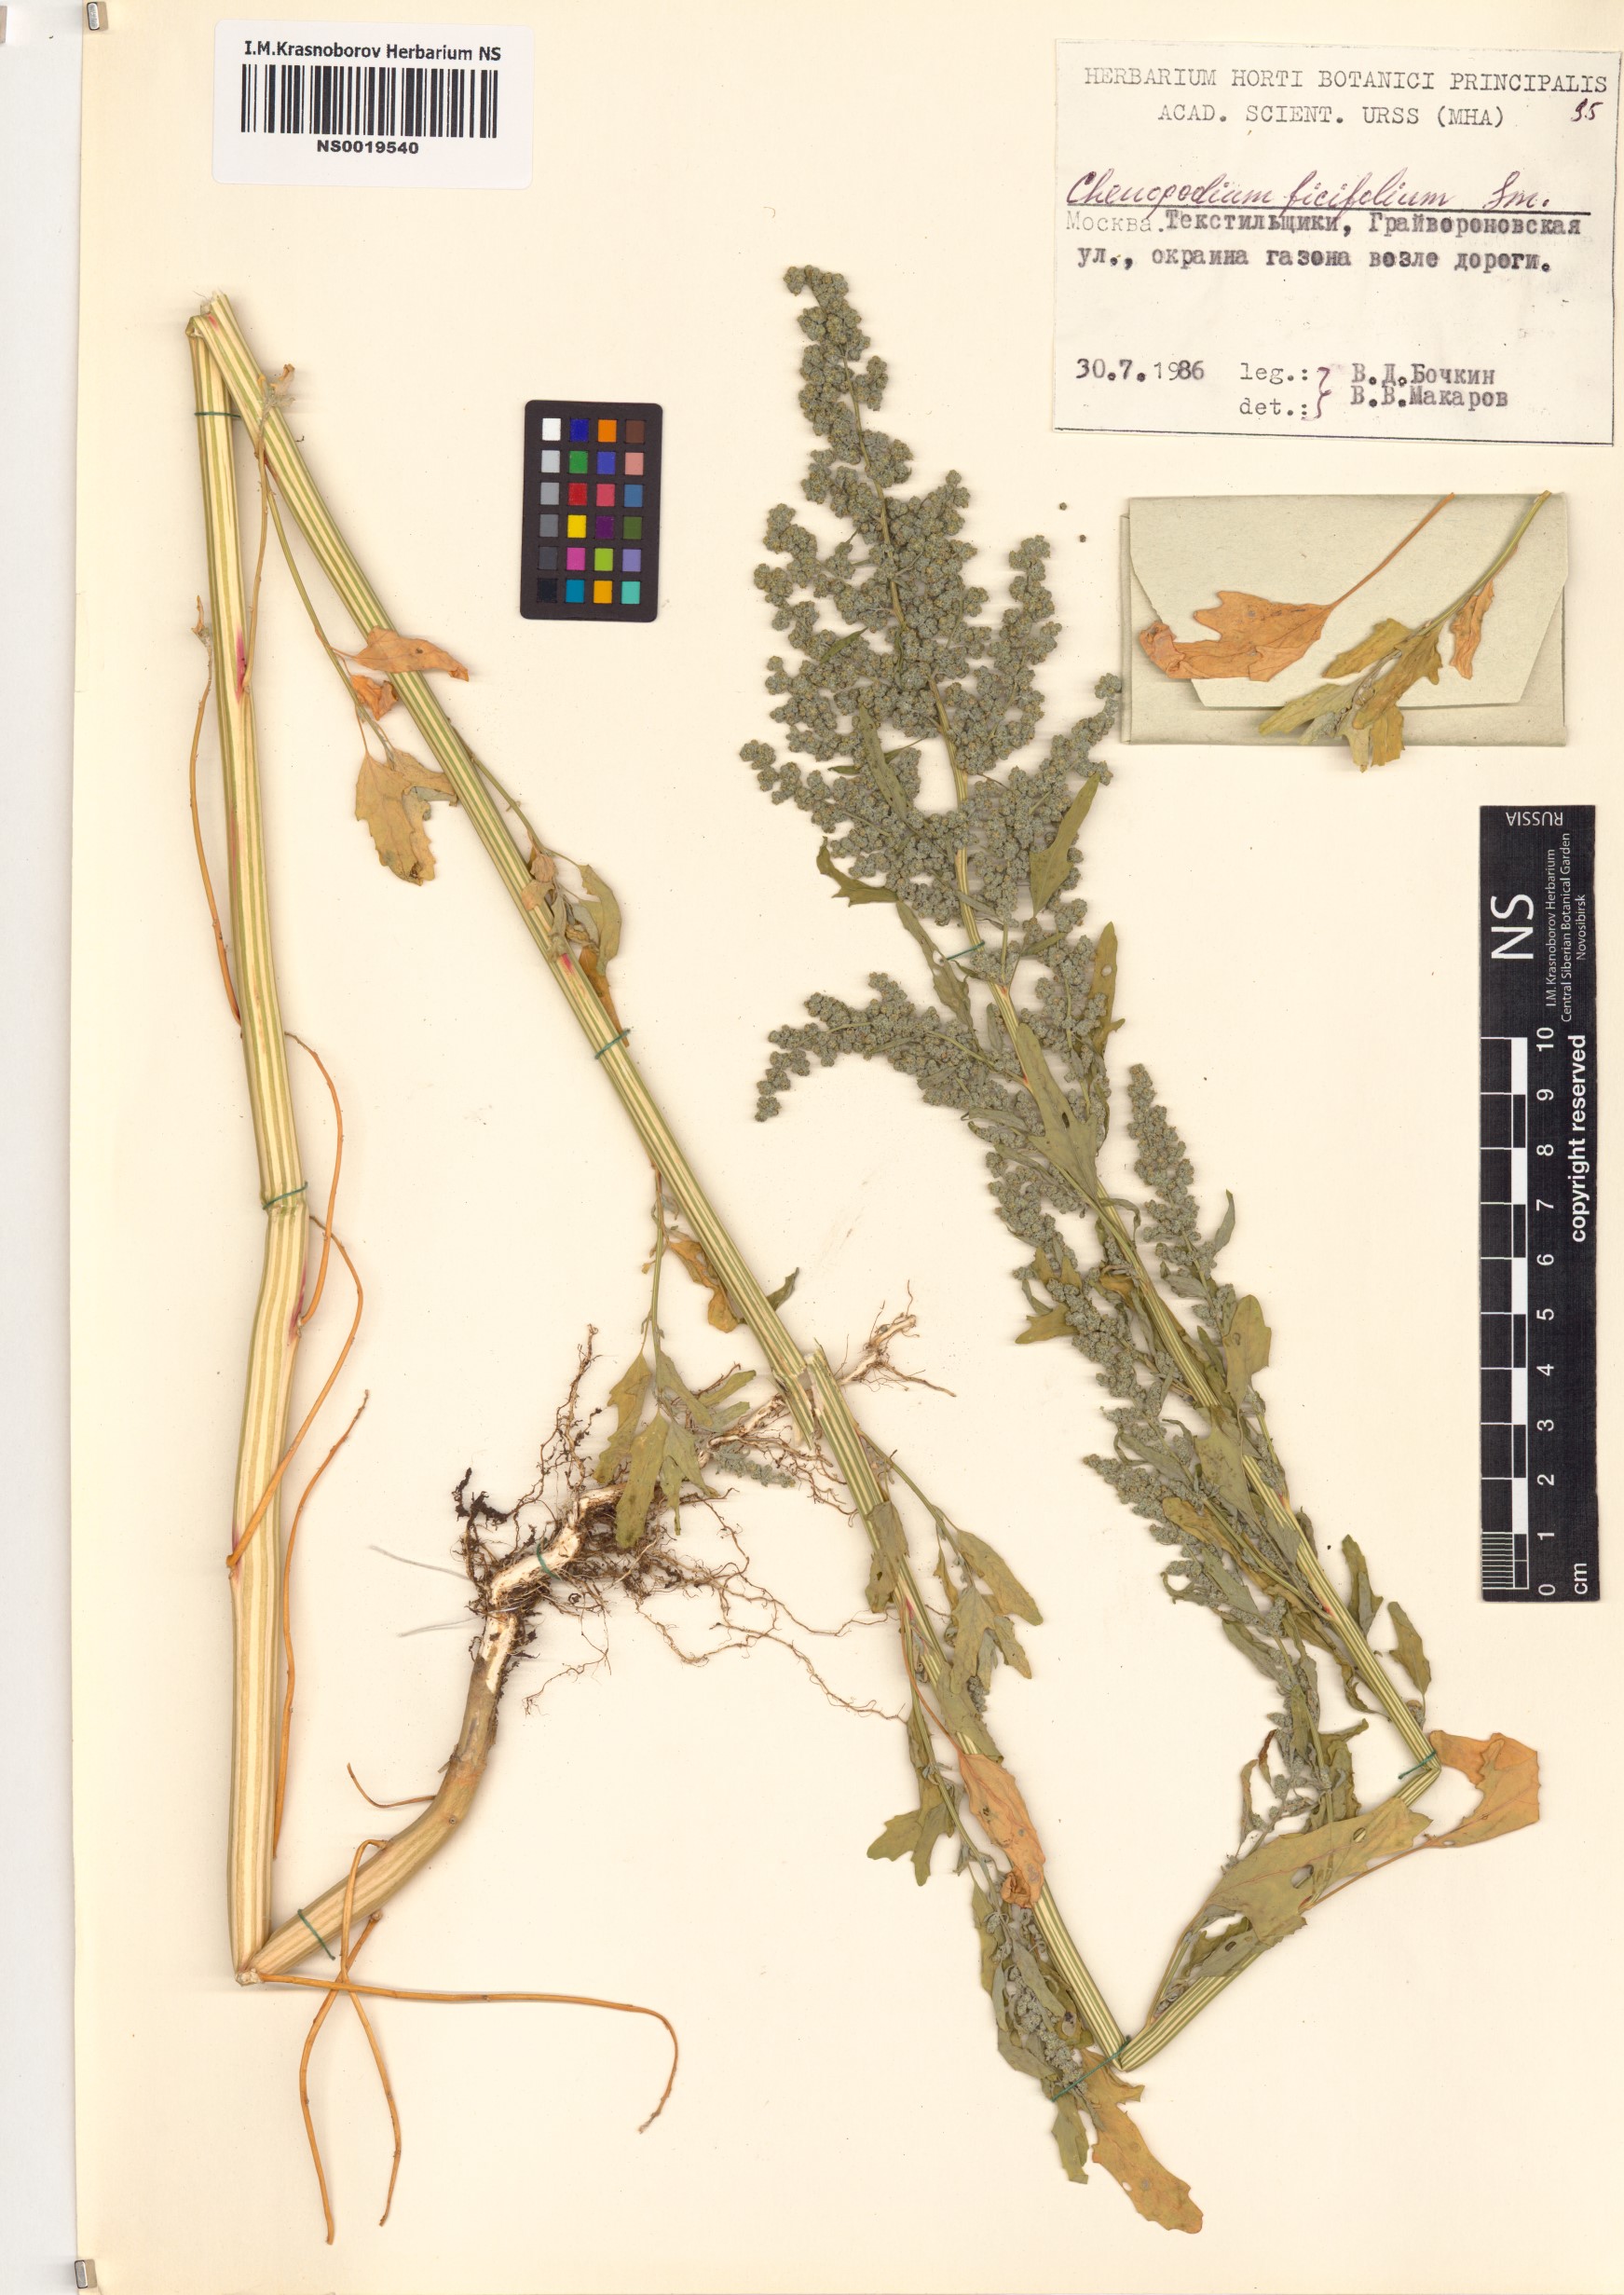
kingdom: Plantae
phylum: Tracheophyta
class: Magnoliopsida
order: Caryophyllales
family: Amaranthaceae
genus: Chenopodium
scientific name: Chenopodium ficifolium
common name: Fig-leaved goosefoot
